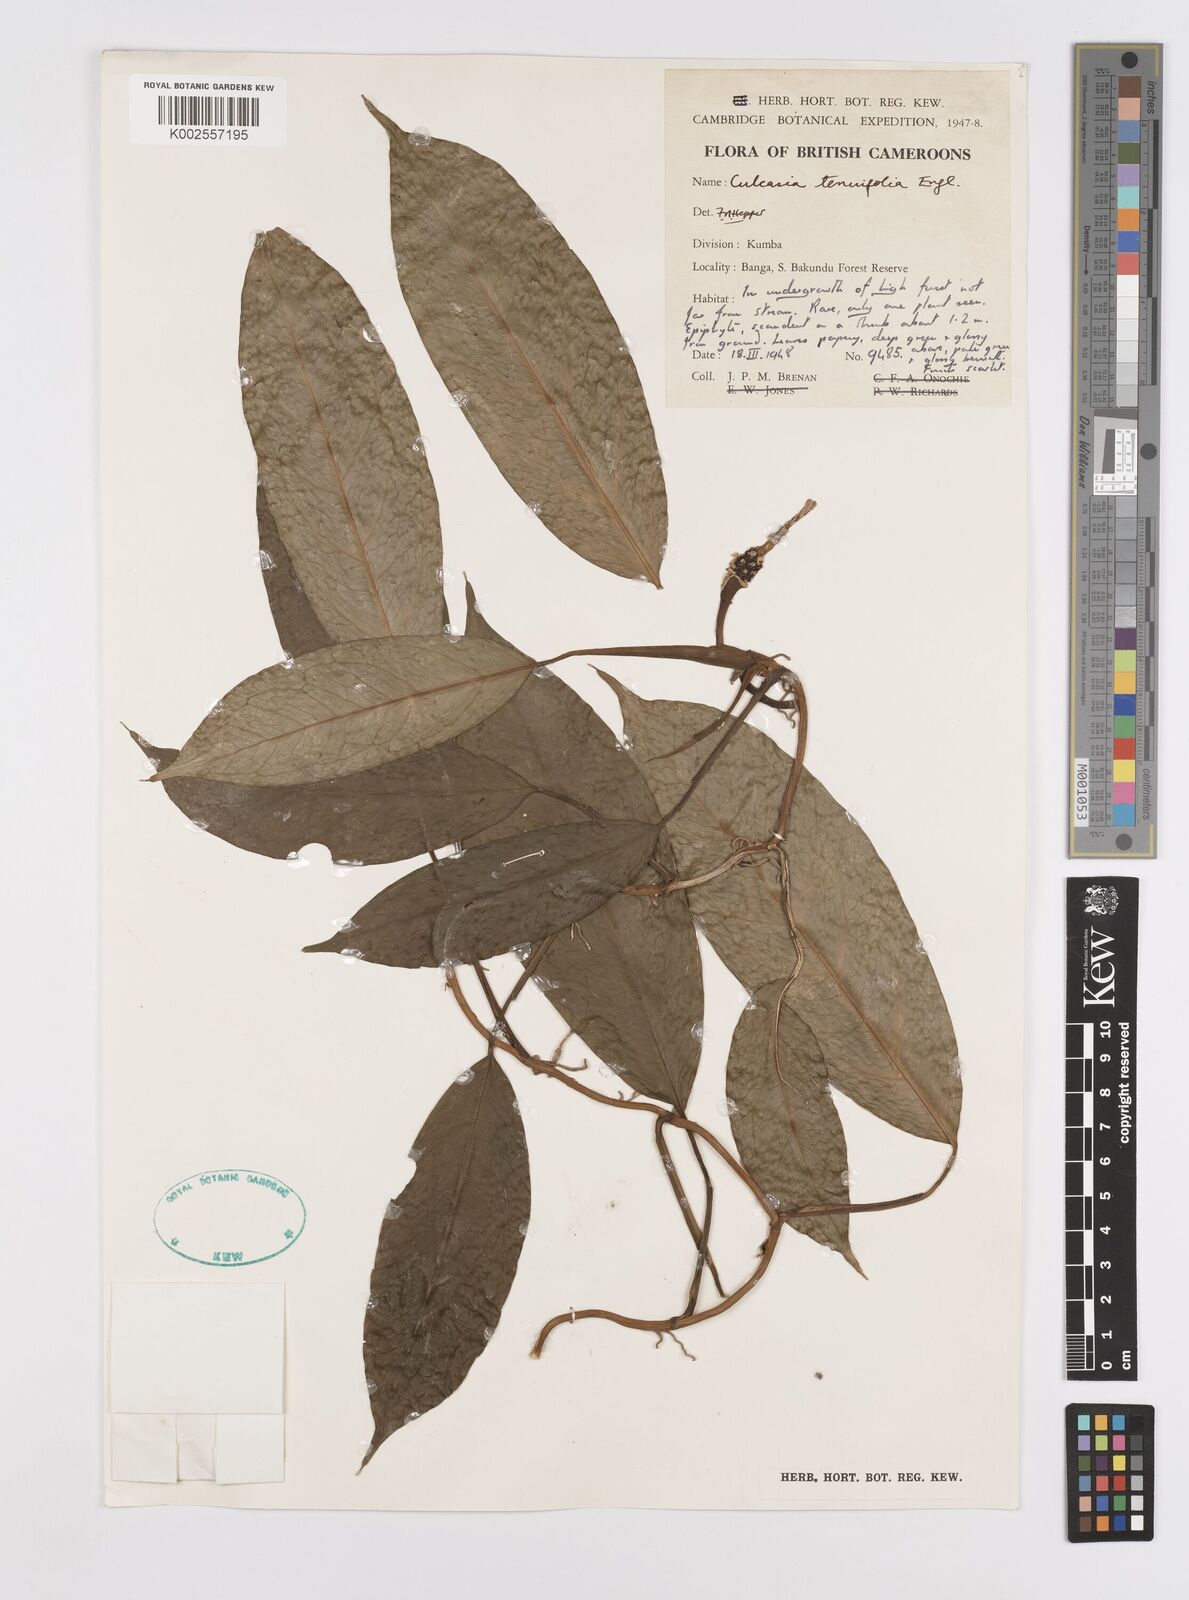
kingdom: Plantae
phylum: Tracheophyta
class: Liliopsida
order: Alismatales
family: Araceae
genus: Culcasia
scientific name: Culcasia tenuifolia
